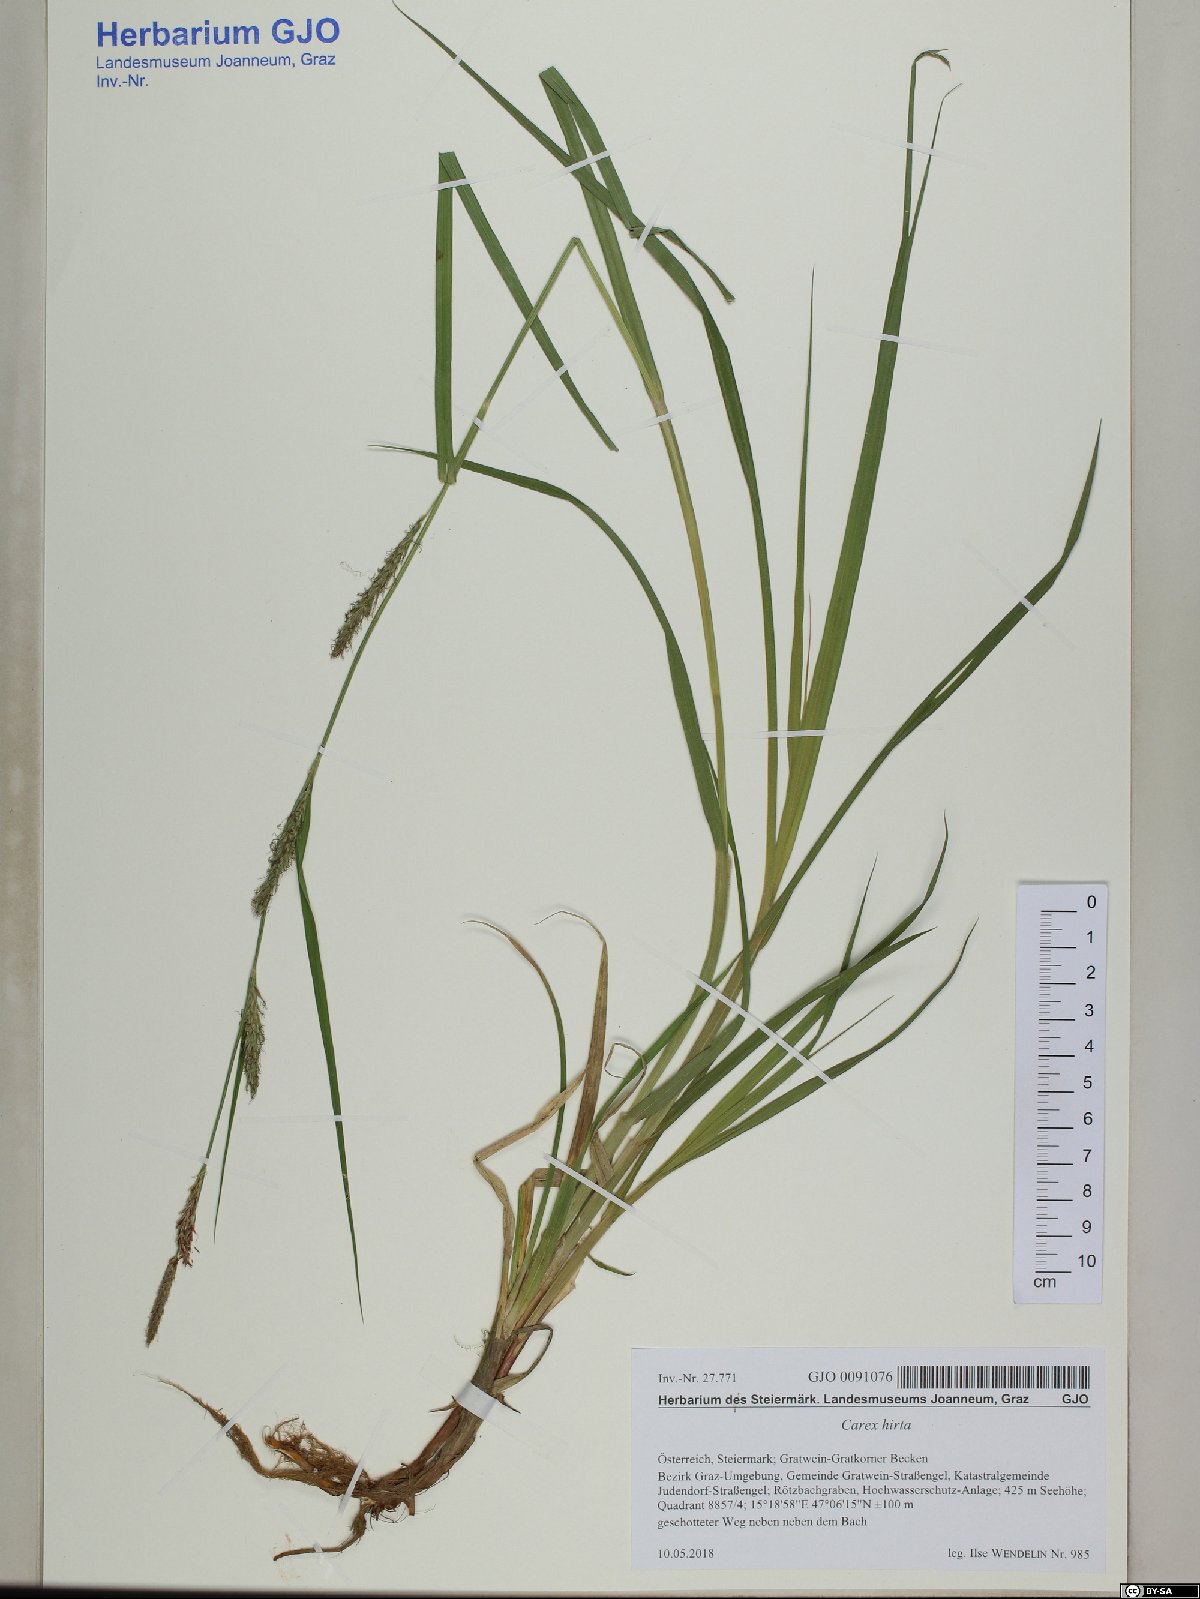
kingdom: Plantae
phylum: Tracheophyta
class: Liliopsida
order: Poales
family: Cyperaceae
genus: Carex
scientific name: Carex hirta
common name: Hairy sedge
